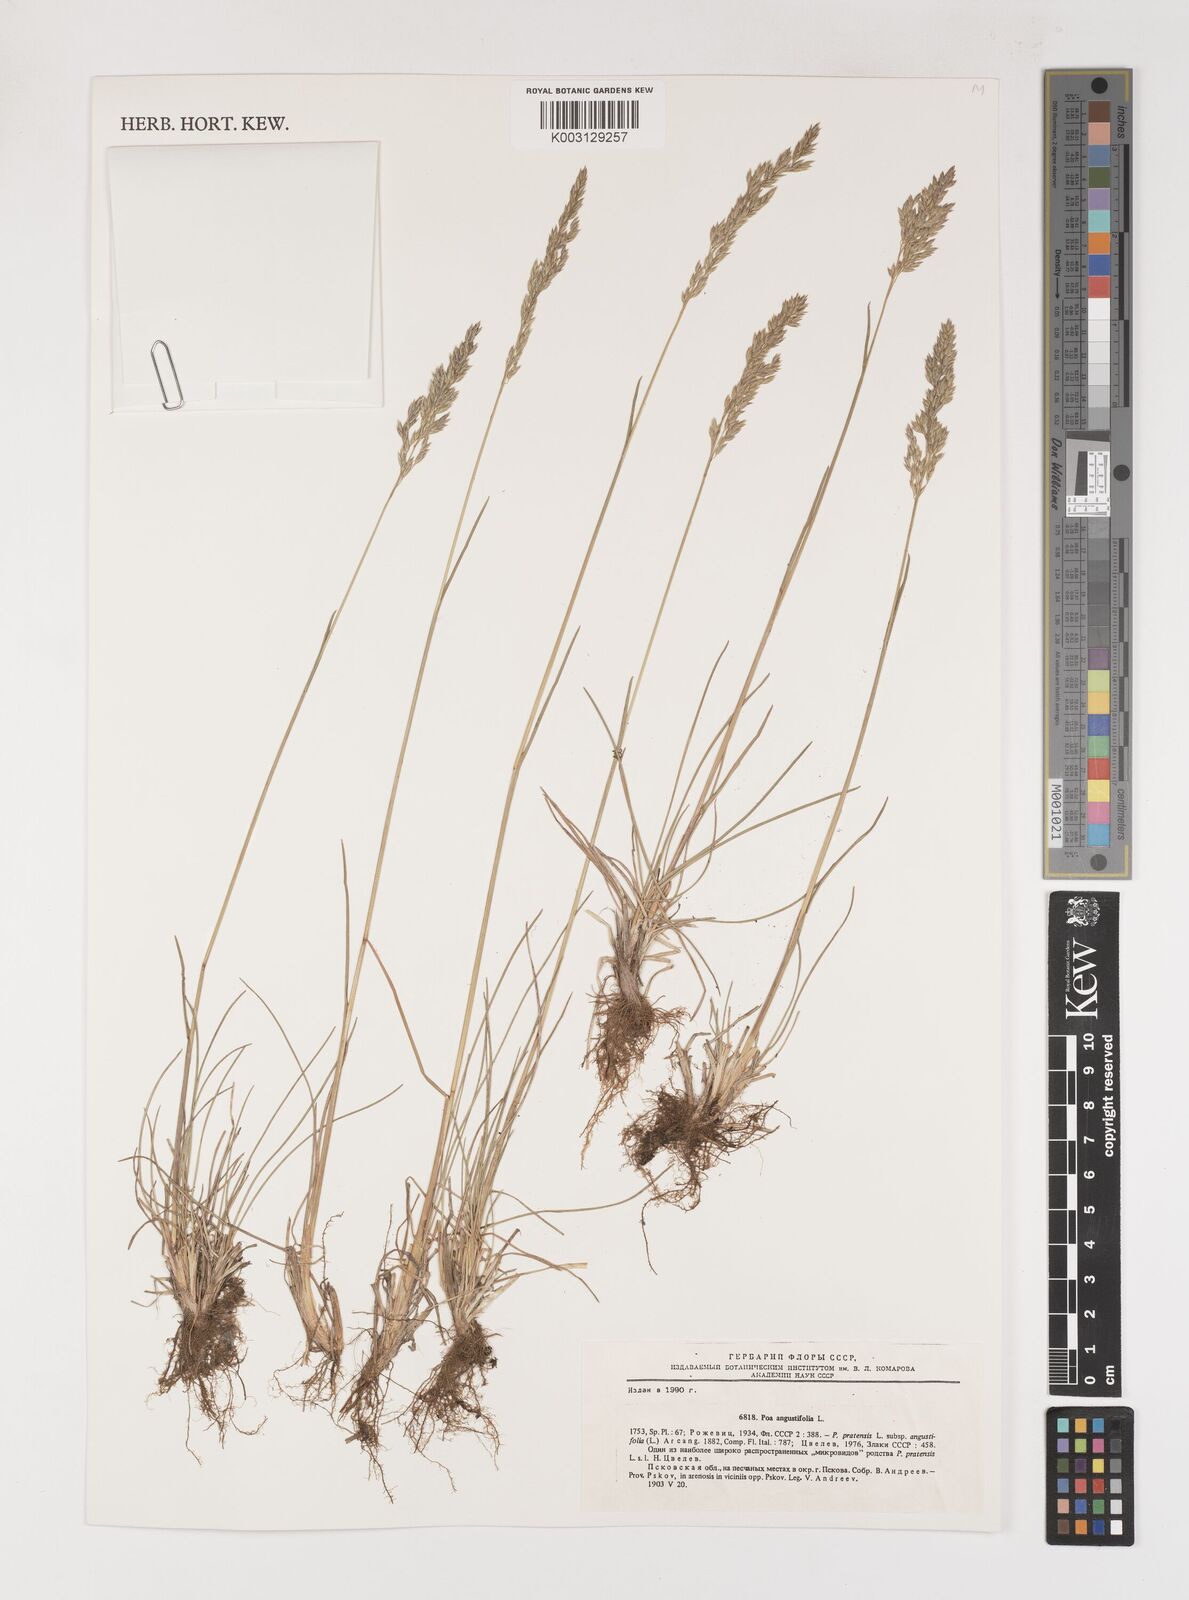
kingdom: Plantae
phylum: Tracheophyta
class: Liliopsida
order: Poales
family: Poaceae
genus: Poa
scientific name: Poa angustifolia
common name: Narrow-leaved meadow-grass
